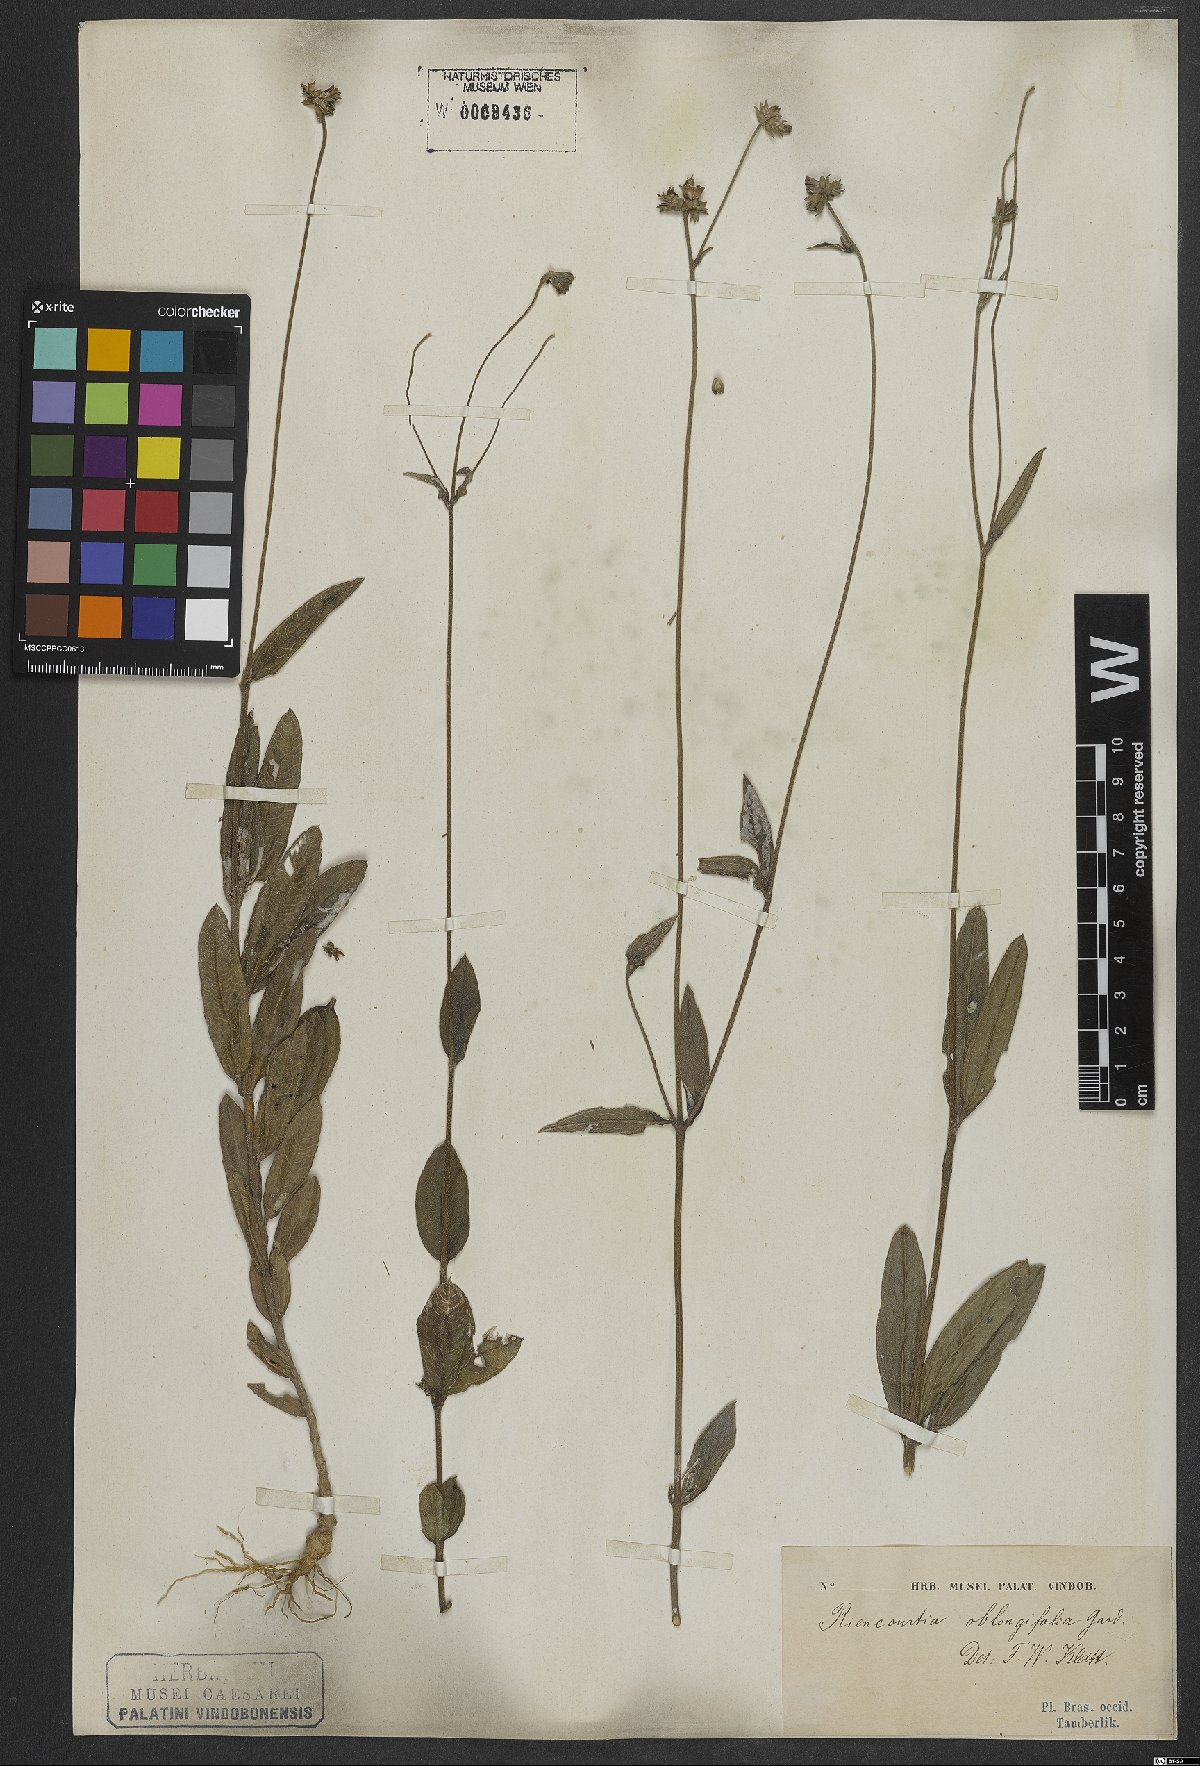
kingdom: Plantae
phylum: Tracheophyta
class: Magnoliopsida
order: Asterales
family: Asteraceae
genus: Riencourtia
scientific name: Riencourtia oblongifolia
